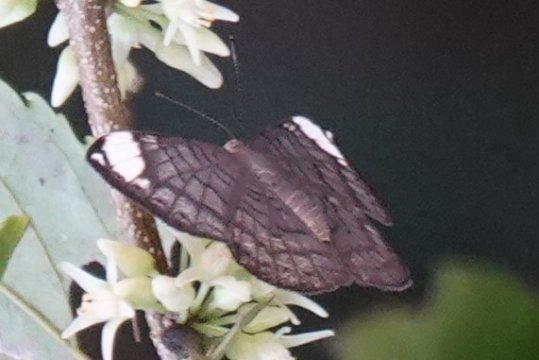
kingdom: Animalia
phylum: Arthropoda
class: Insecta
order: Lepidoptera
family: Lycaenidae
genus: Emesis
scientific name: Emesis lucinda
